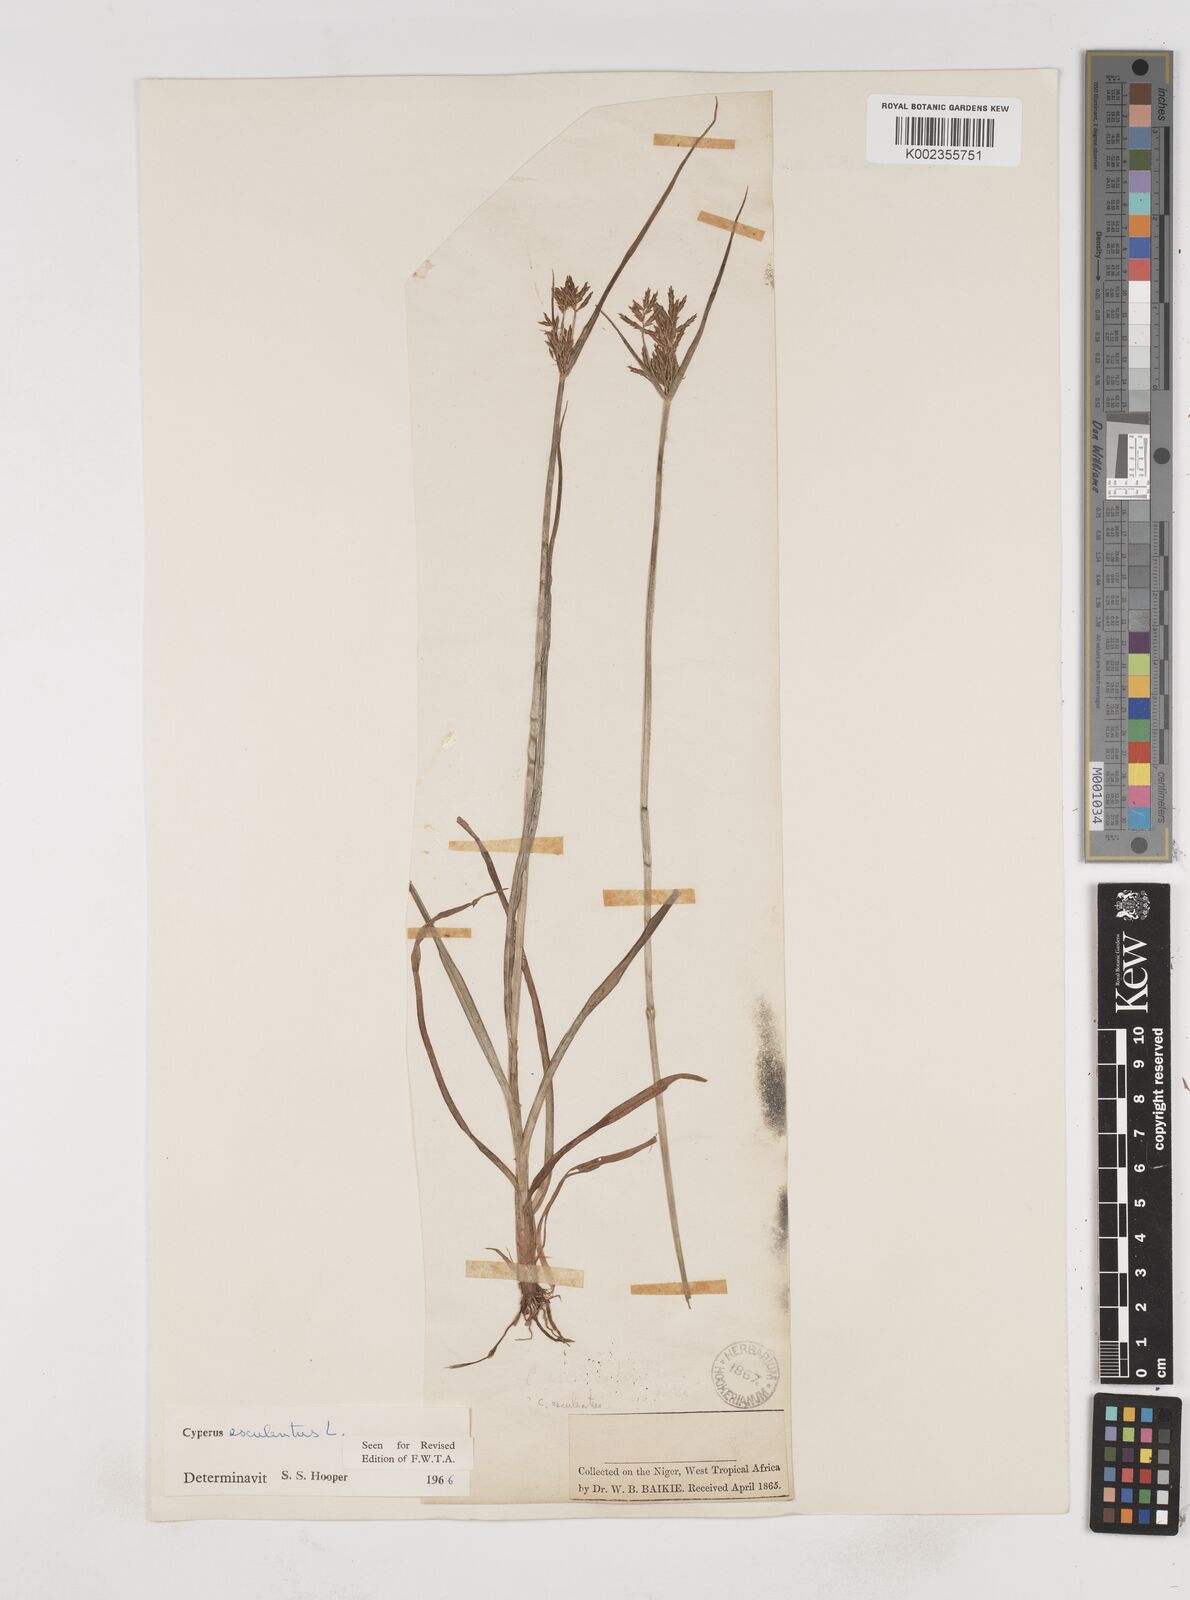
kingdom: Plantae
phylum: Tracheophyta
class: Liliopsida
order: Poales
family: Cyperaceae
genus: Cyperus
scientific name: Cyperus esculentus
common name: Yellow nutsedge
